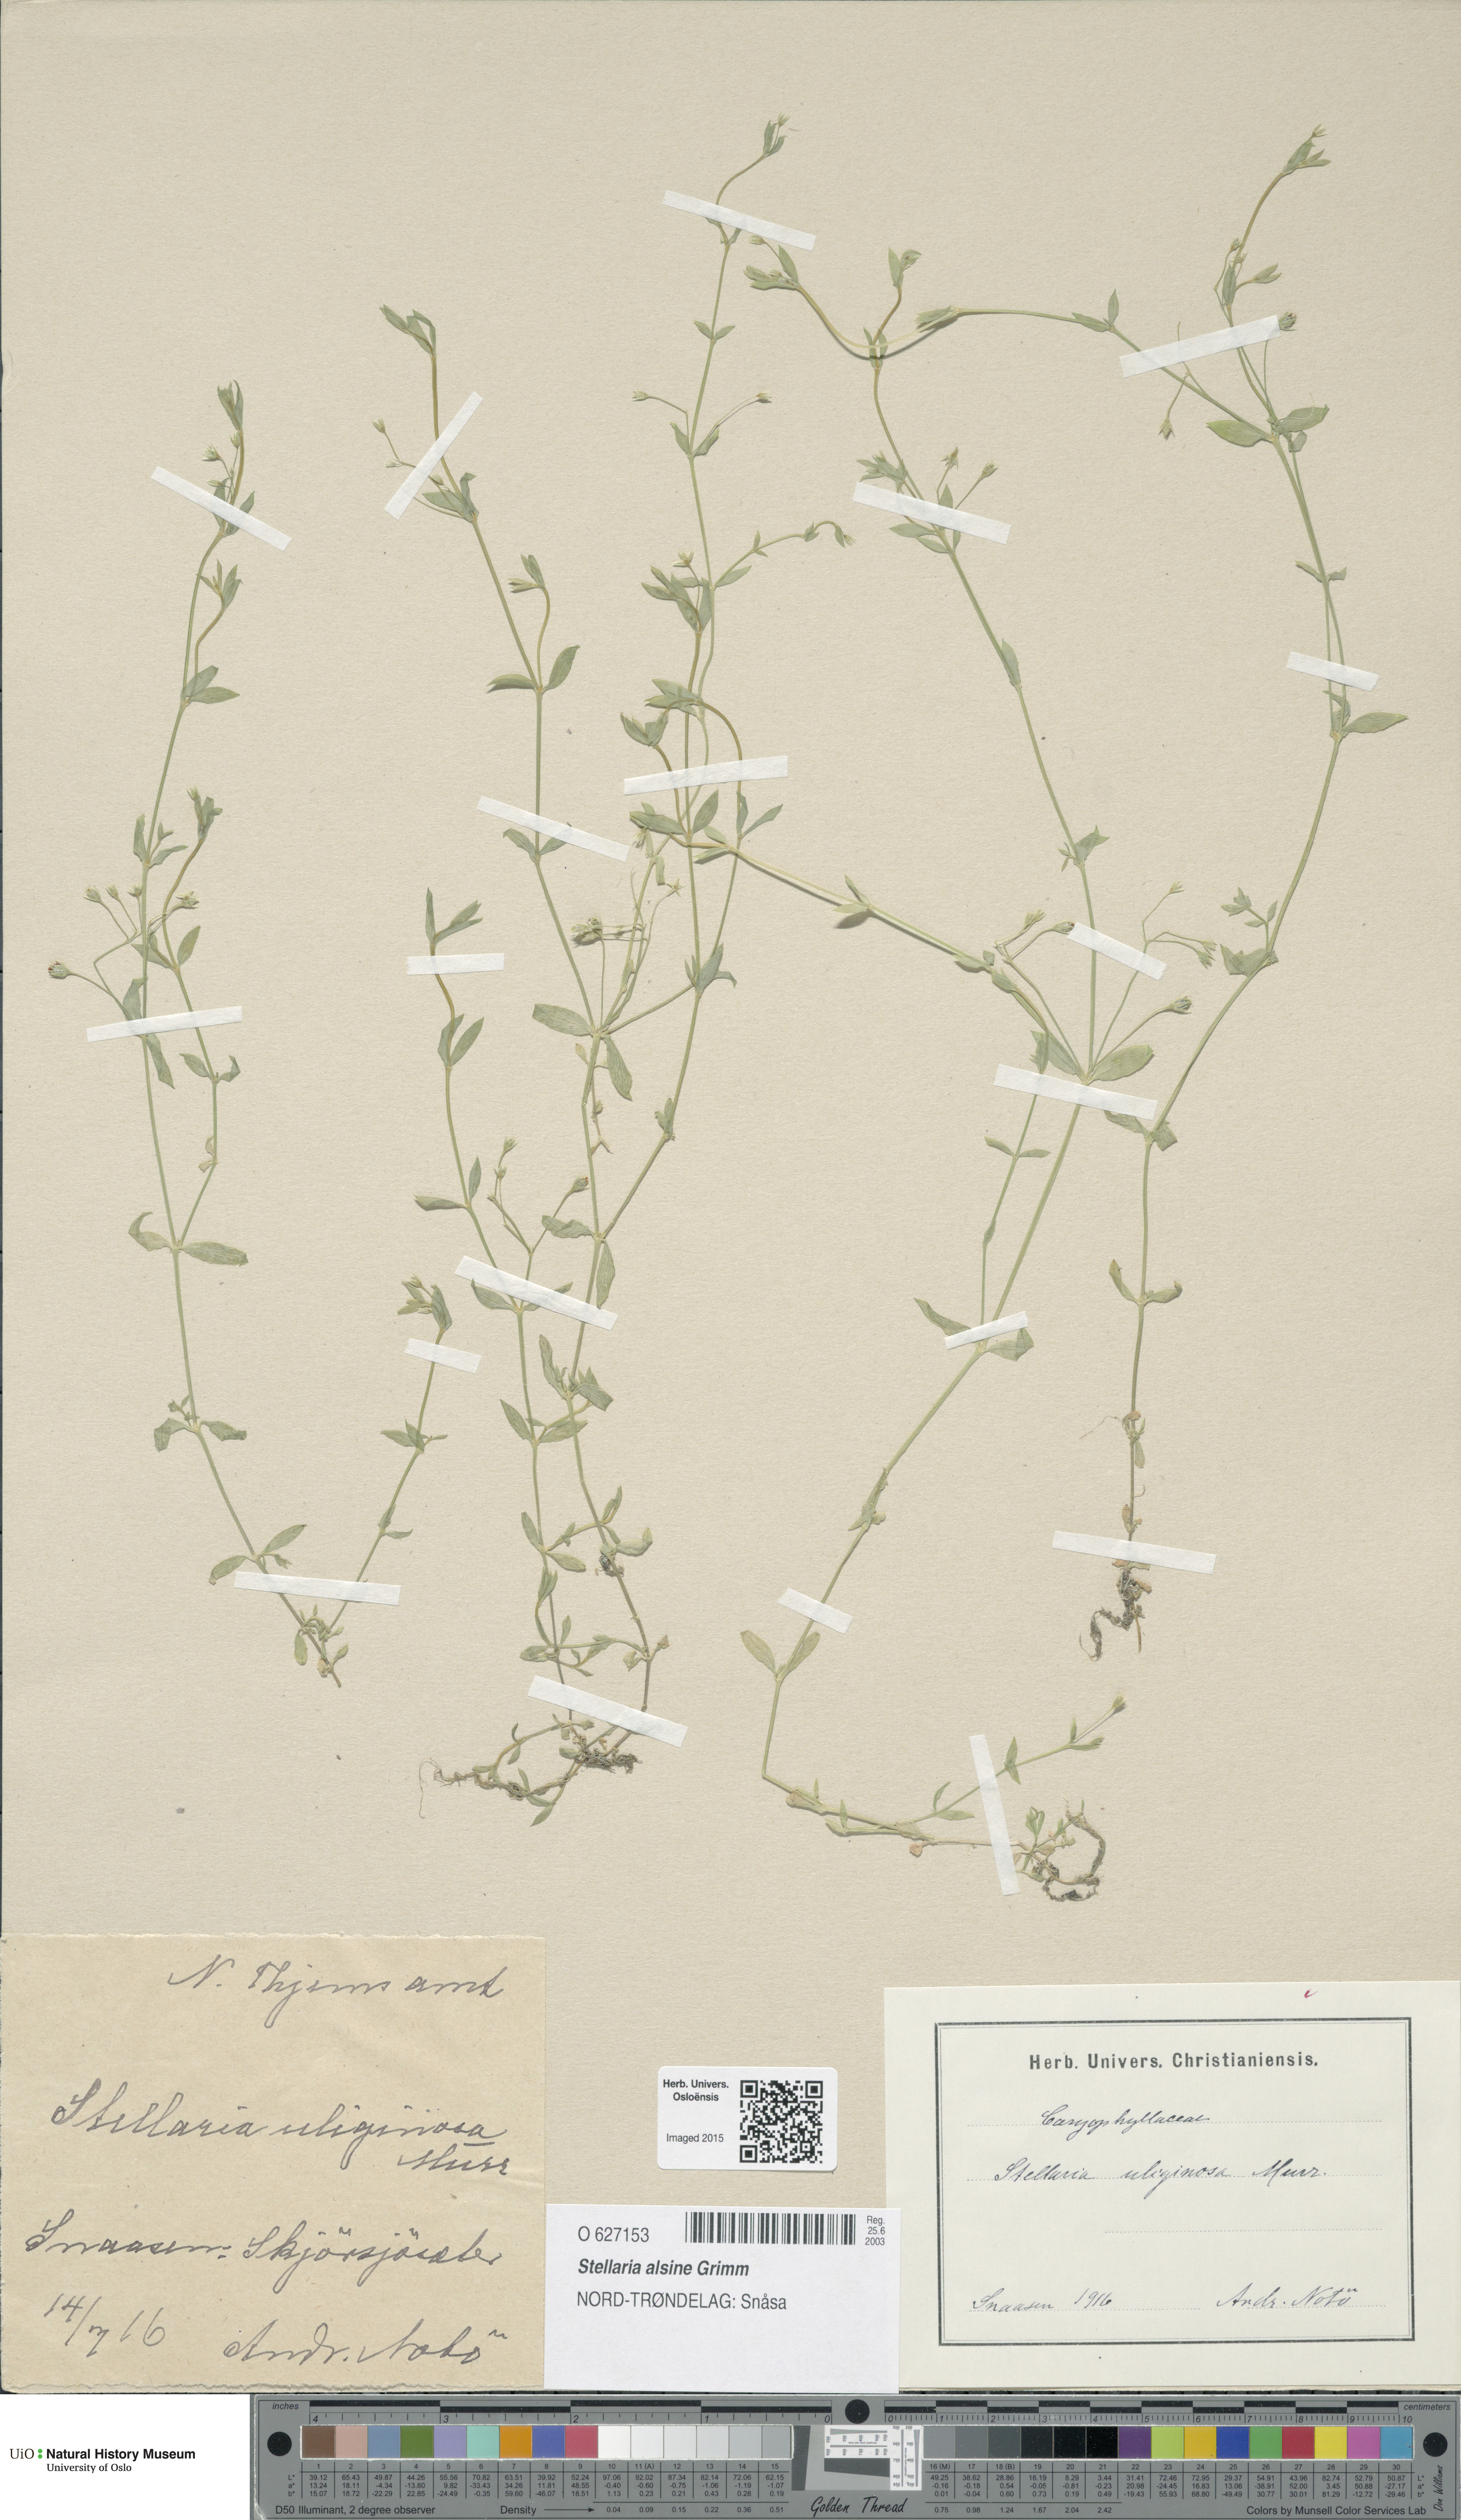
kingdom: Plantae
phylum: Tracheophyta
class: Magnoliopsida
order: Caryophyllales
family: Caryophyllaceae
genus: Stellaria
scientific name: Stellaria alsine
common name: Bog stitchwort
